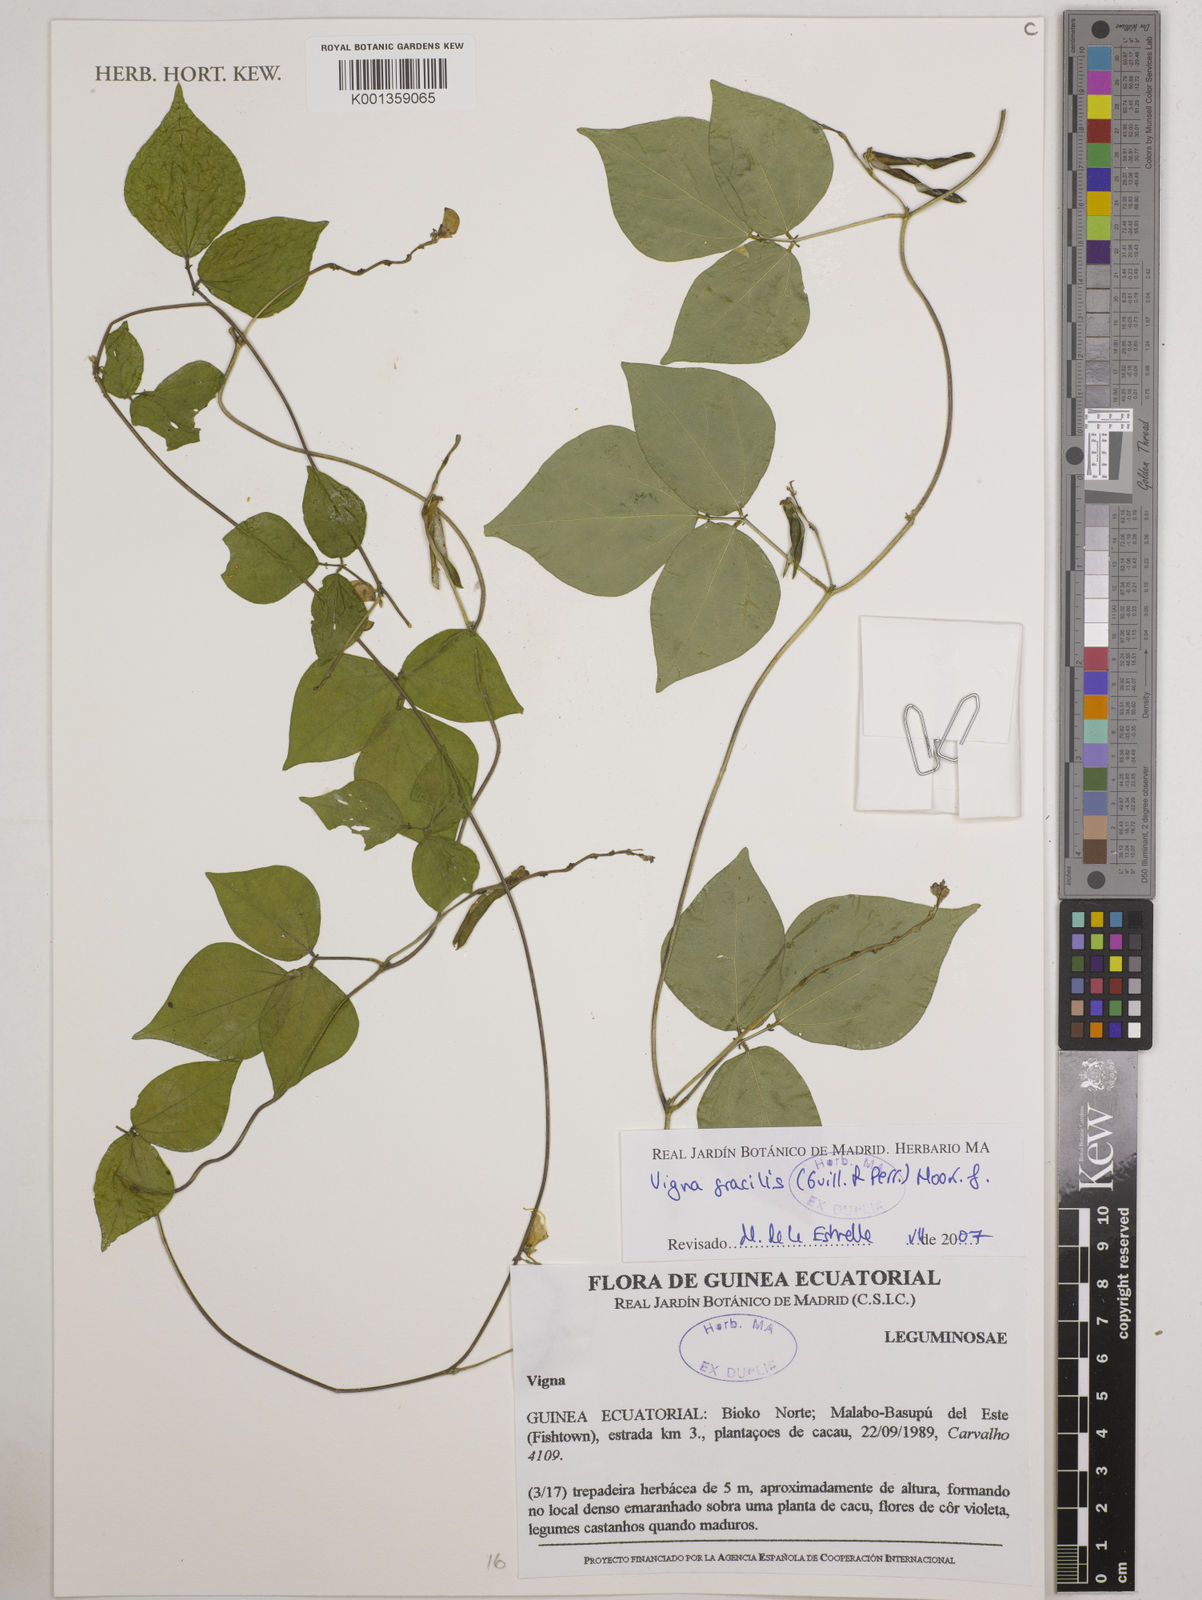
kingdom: Plantae
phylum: Tracheophyta
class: Magnoliopsida
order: Fabales
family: Fabaceae
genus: Vigna
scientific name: Vigna gracilis
